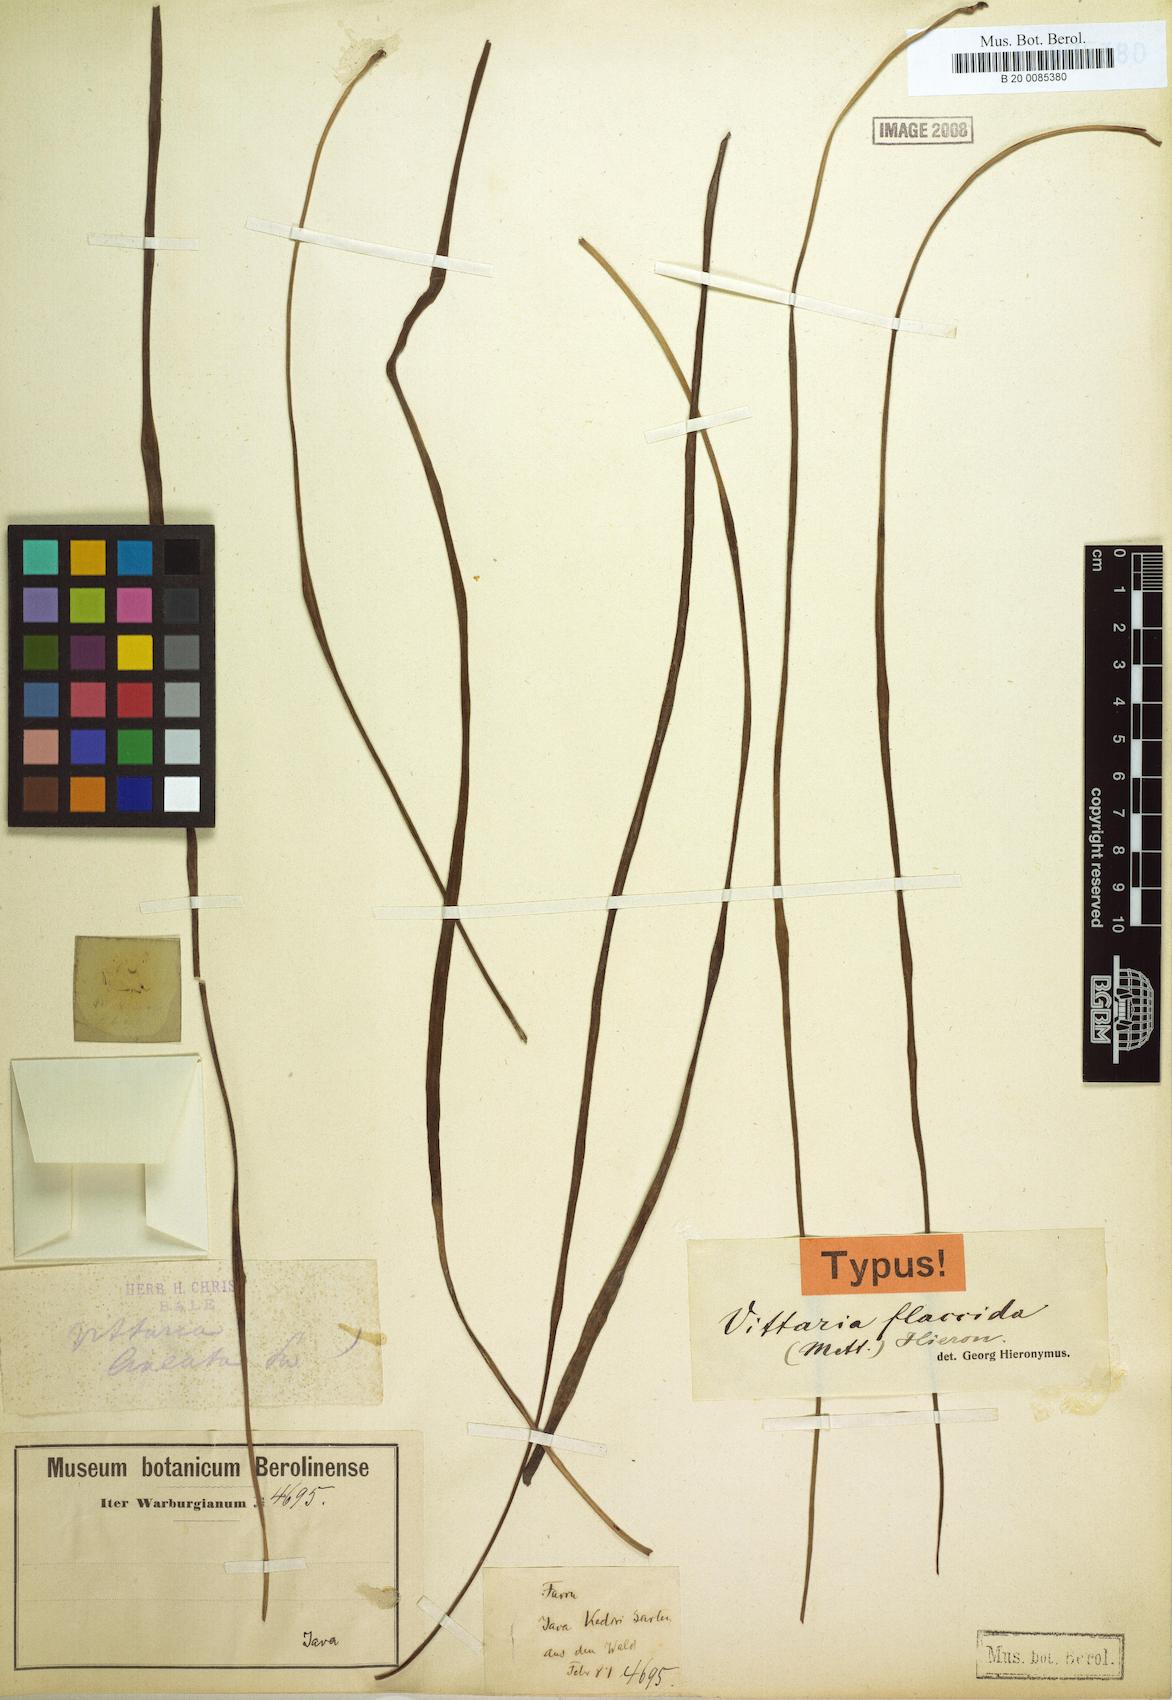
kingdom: Plantae
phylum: Tracheophyta
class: Polypodiopsida
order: Polypodiales
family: Pteridaceae
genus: Haplopteris
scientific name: Haplopteris elongata
